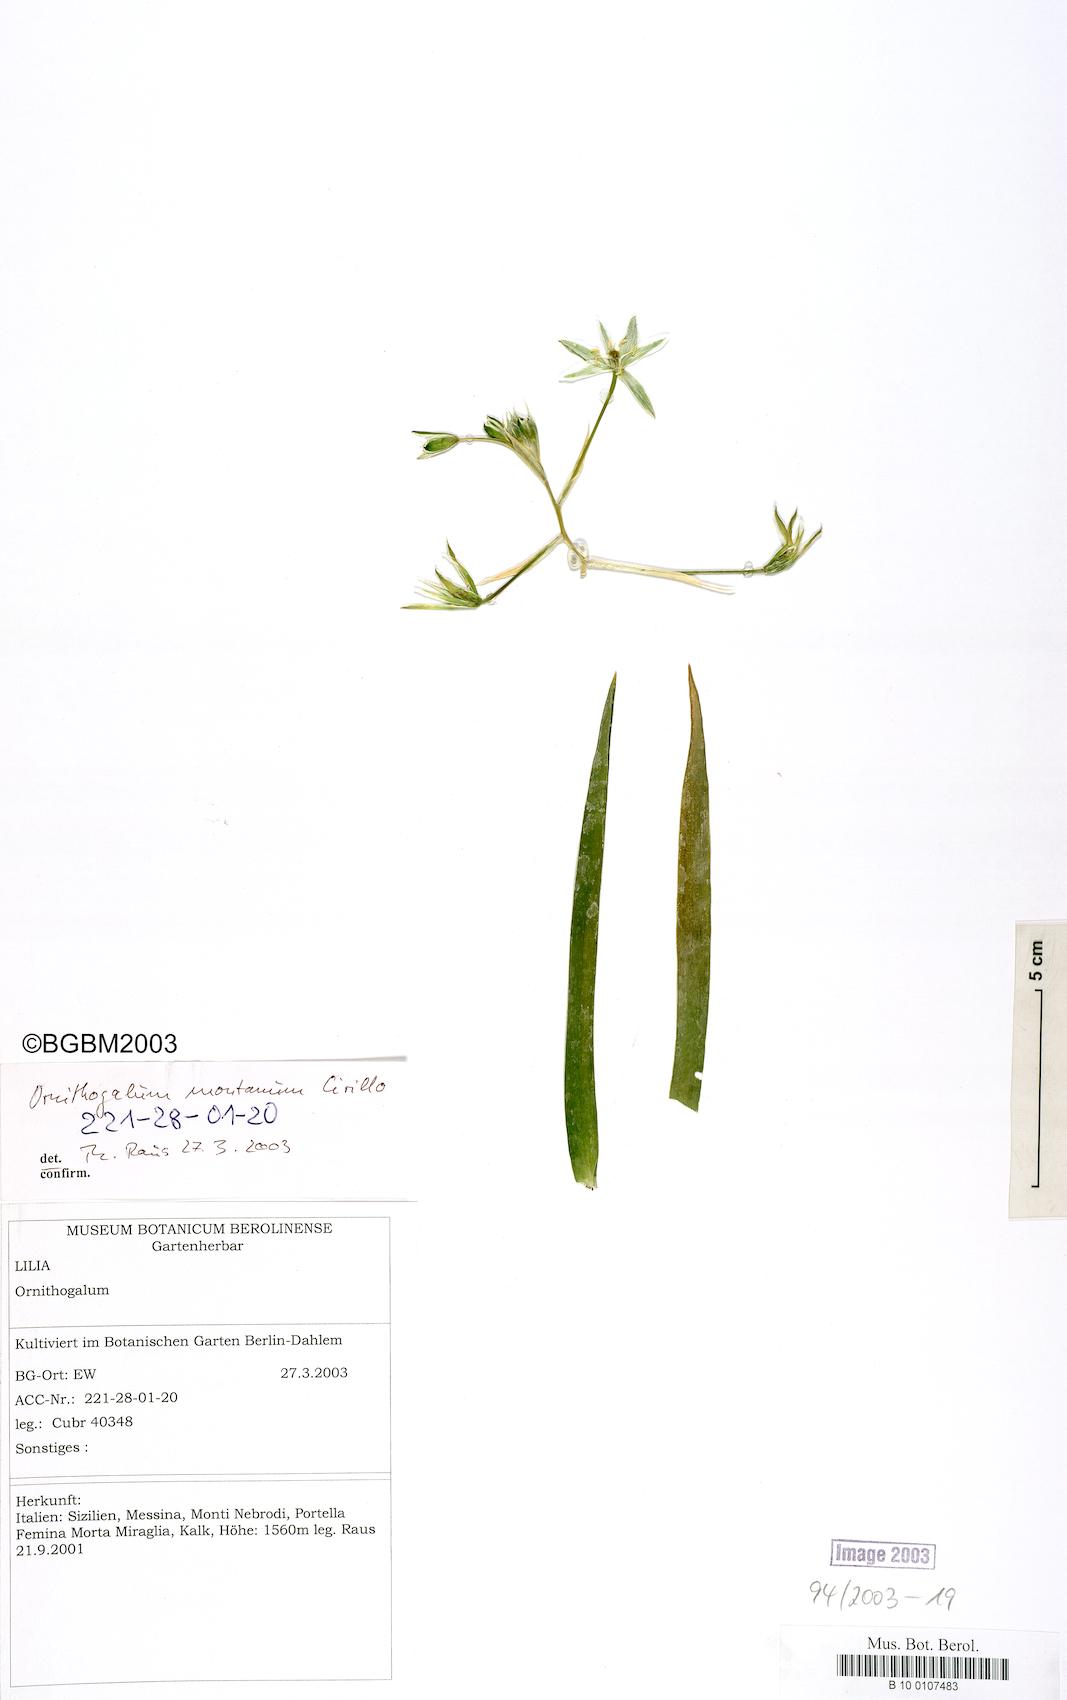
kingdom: Plantae
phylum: Tracheophyta
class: Liliopsida
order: Asparagales
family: Asparagaceae
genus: Ornithogalum
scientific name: Ornithogalum montanum
